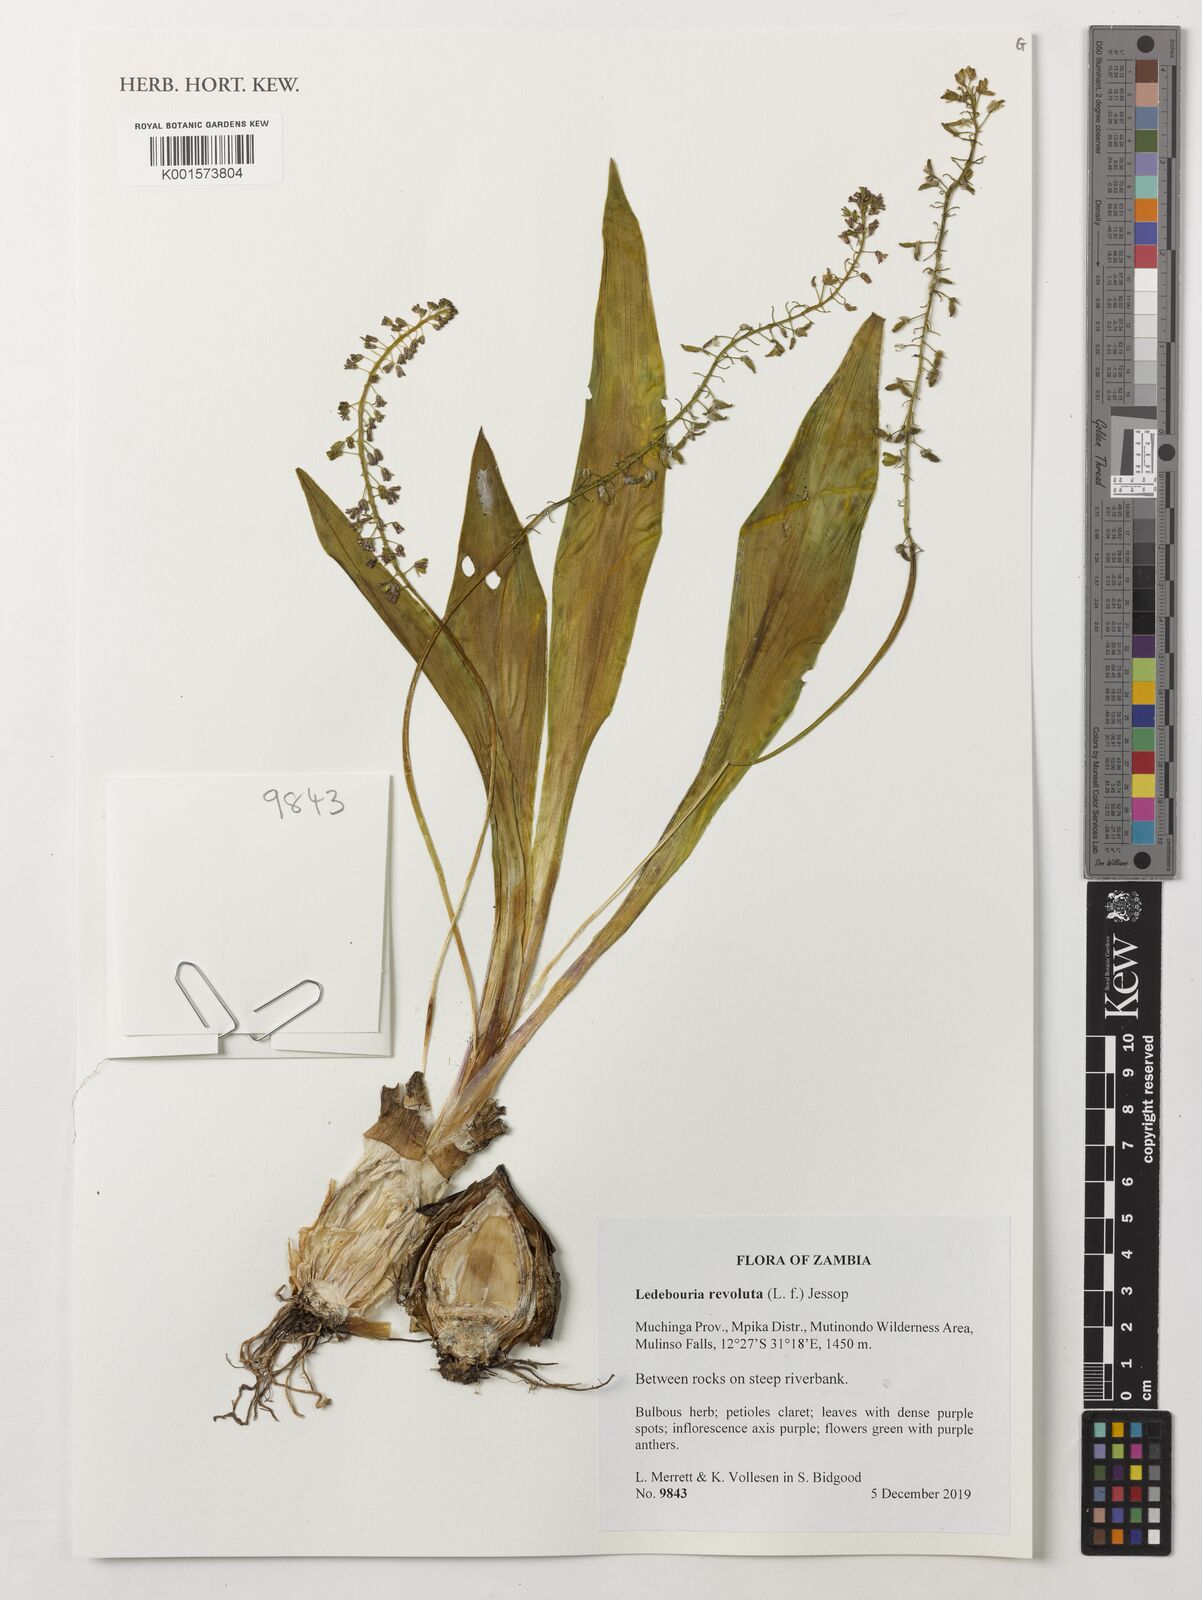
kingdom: Plantae
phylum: Tracheophyta
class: Liliopsida
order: Asparagales
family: Asparagaceae
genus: Ledebouria
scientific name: Ledebouria revoluta
